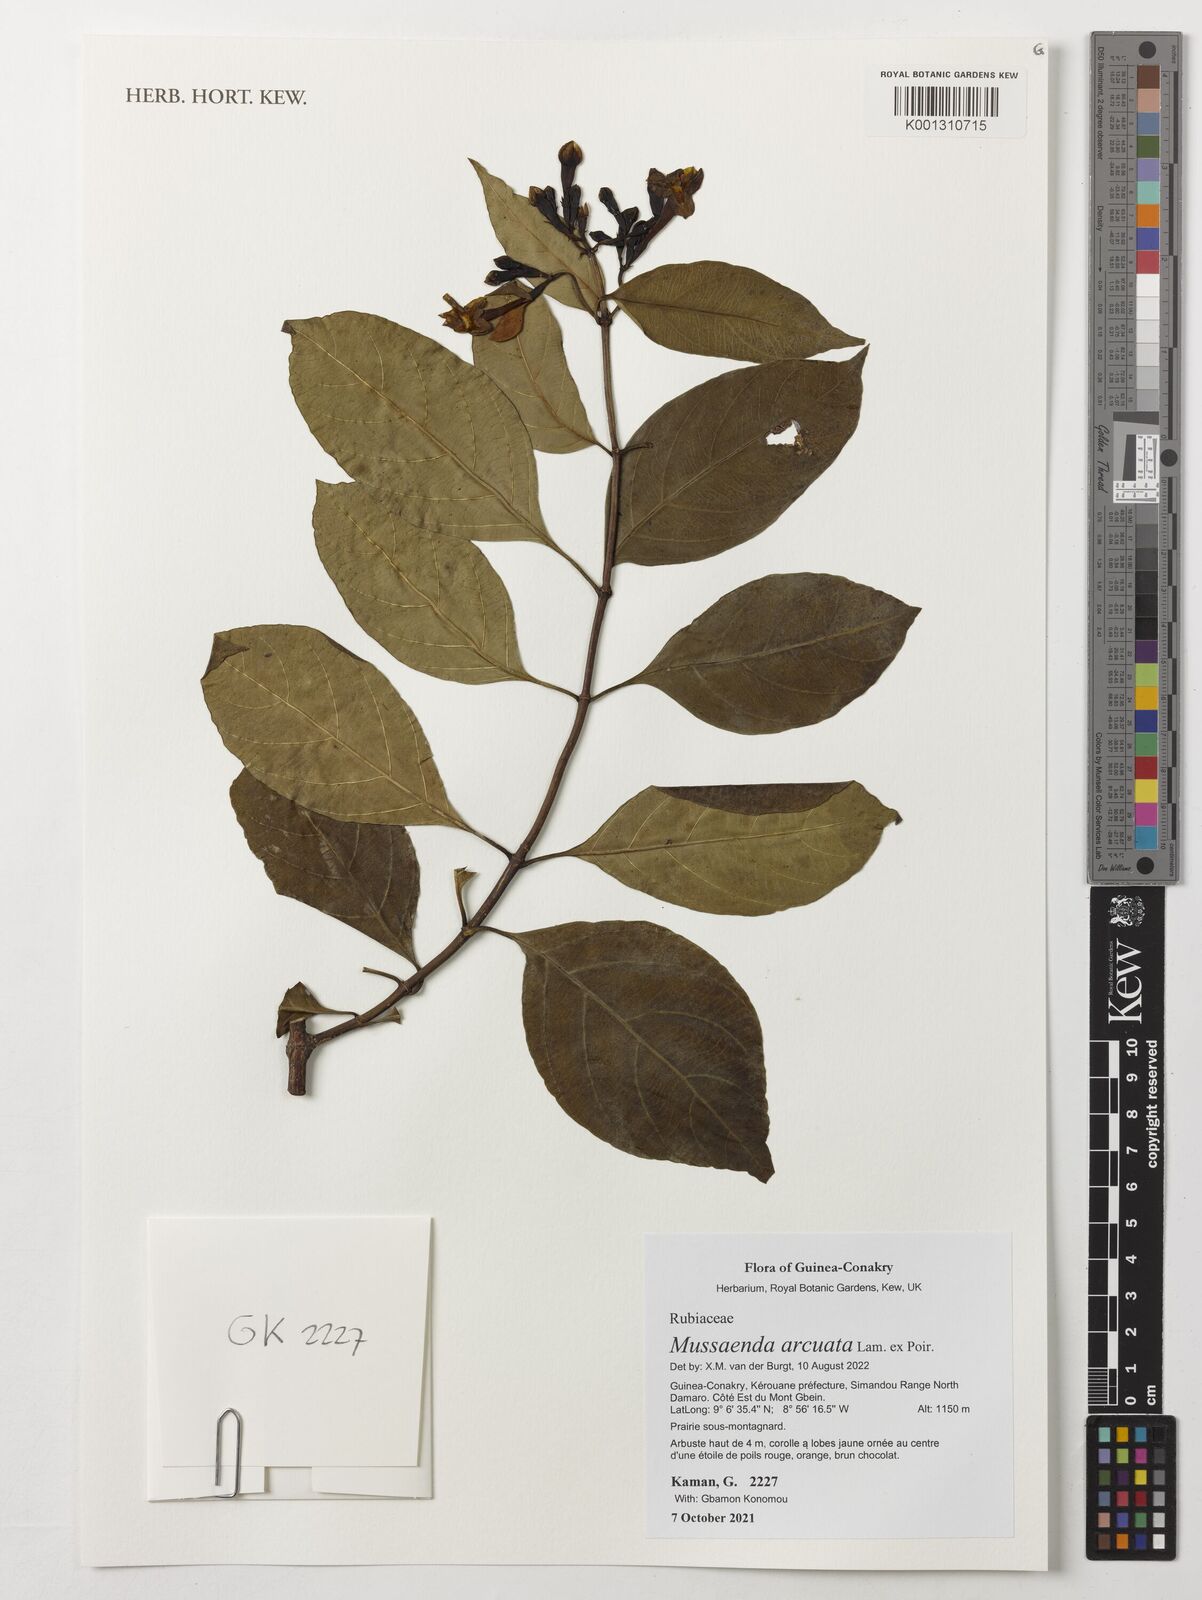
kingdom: Plantae
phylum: Tracheophyta
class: Magnoliopsida
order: Gentianales
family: Rubiaceae
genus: Mussaenda
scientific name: Mussaenda arcuata
